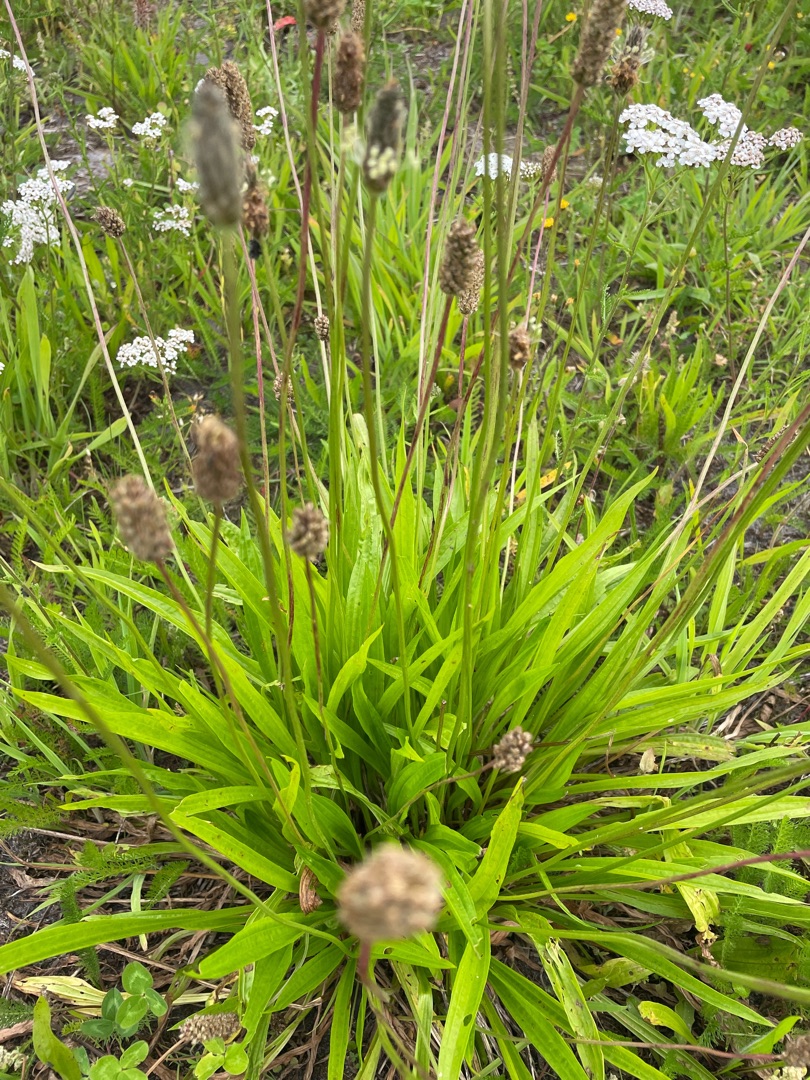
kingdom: Plantae
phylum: Tracheophyta
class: Magnoliopsida
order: Lamiales
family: Plantaginaceae
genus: Plantago
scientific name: Plantago lanceolata
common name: Lancet-vejbred
